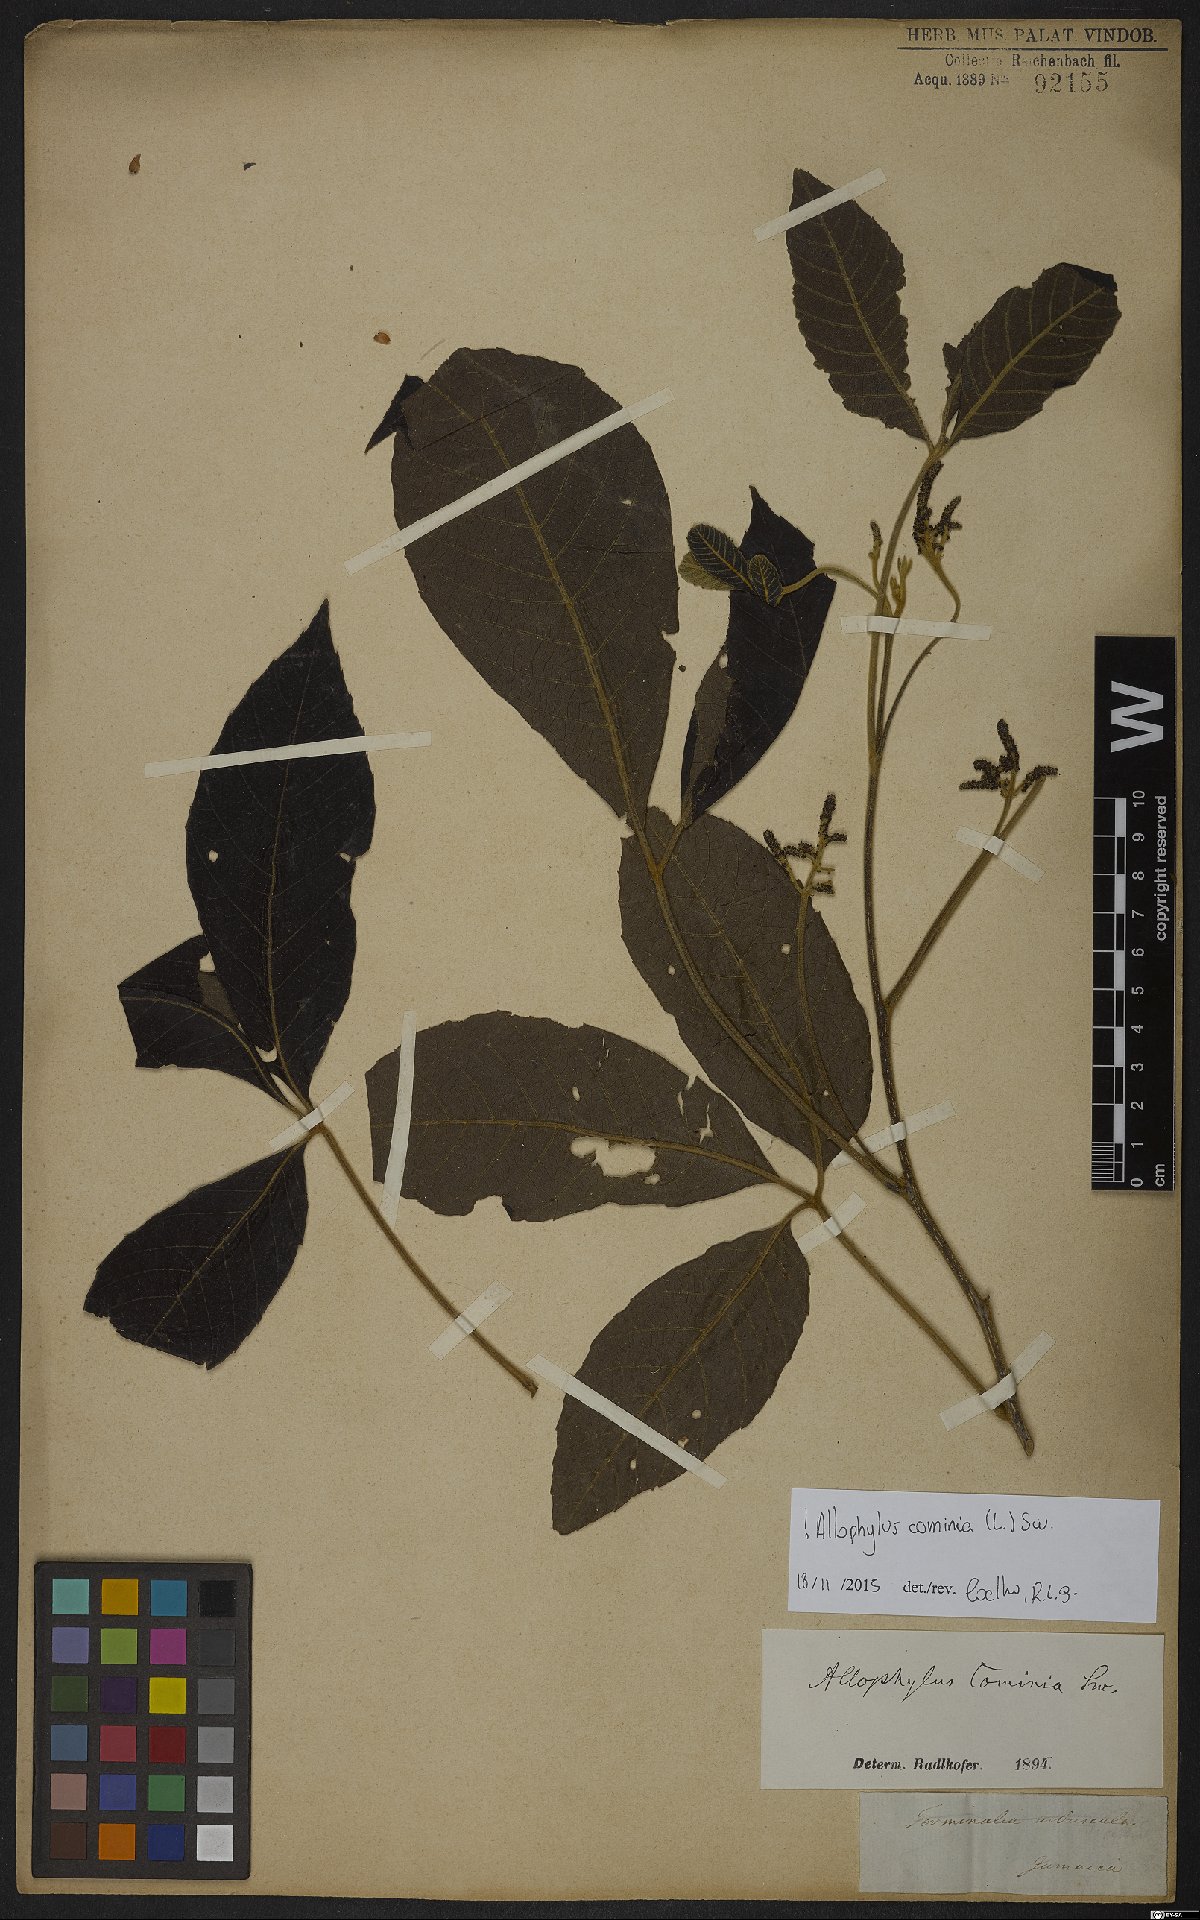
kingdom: Plantae
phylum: Tracheophyta
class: Magnoliopsida
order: Sapindales
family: Sapindaceae
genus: Allophylus
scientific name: Allophylus cominia
